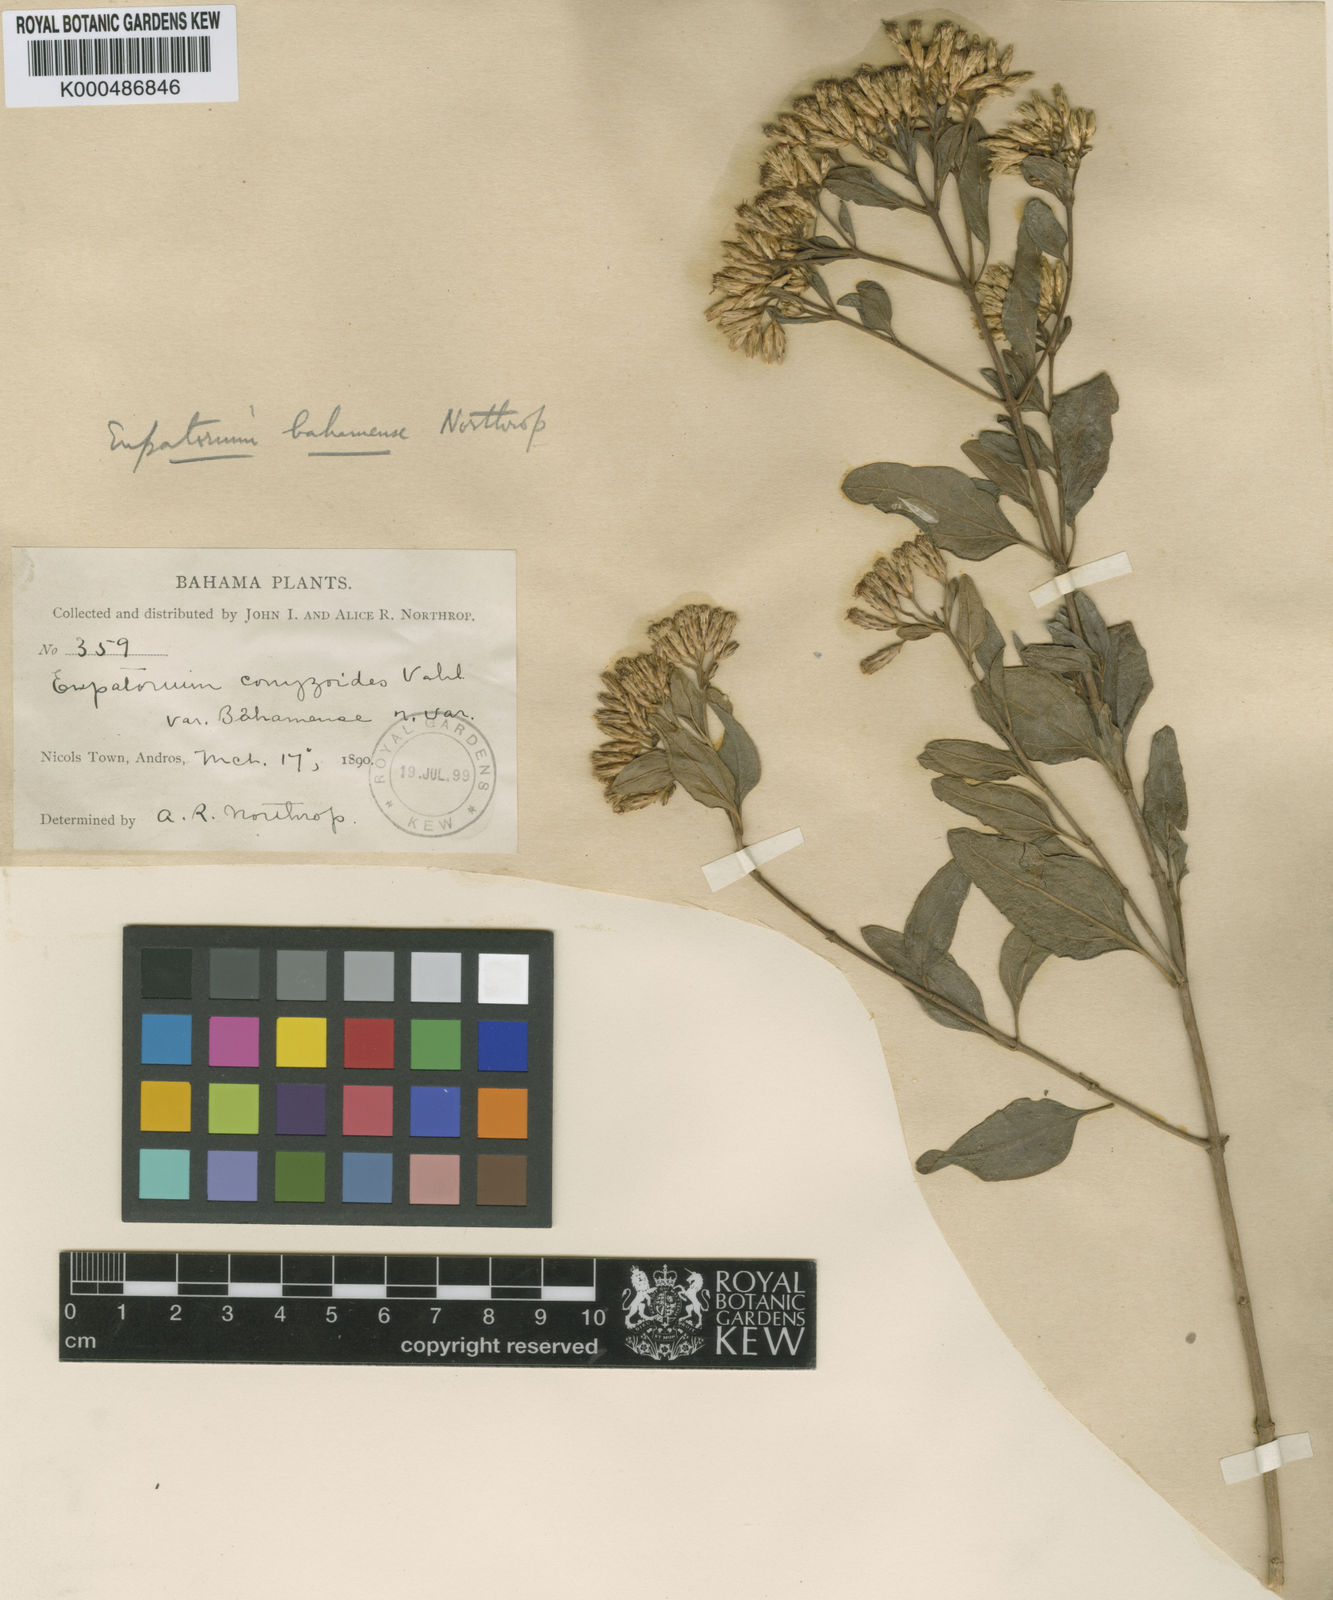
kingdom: Plantae
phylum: Tracheophyta
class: Magnoliopsida
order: Asterales
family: Asteraceae
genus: Chromolaena
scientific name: Chromolaena bahamensis
